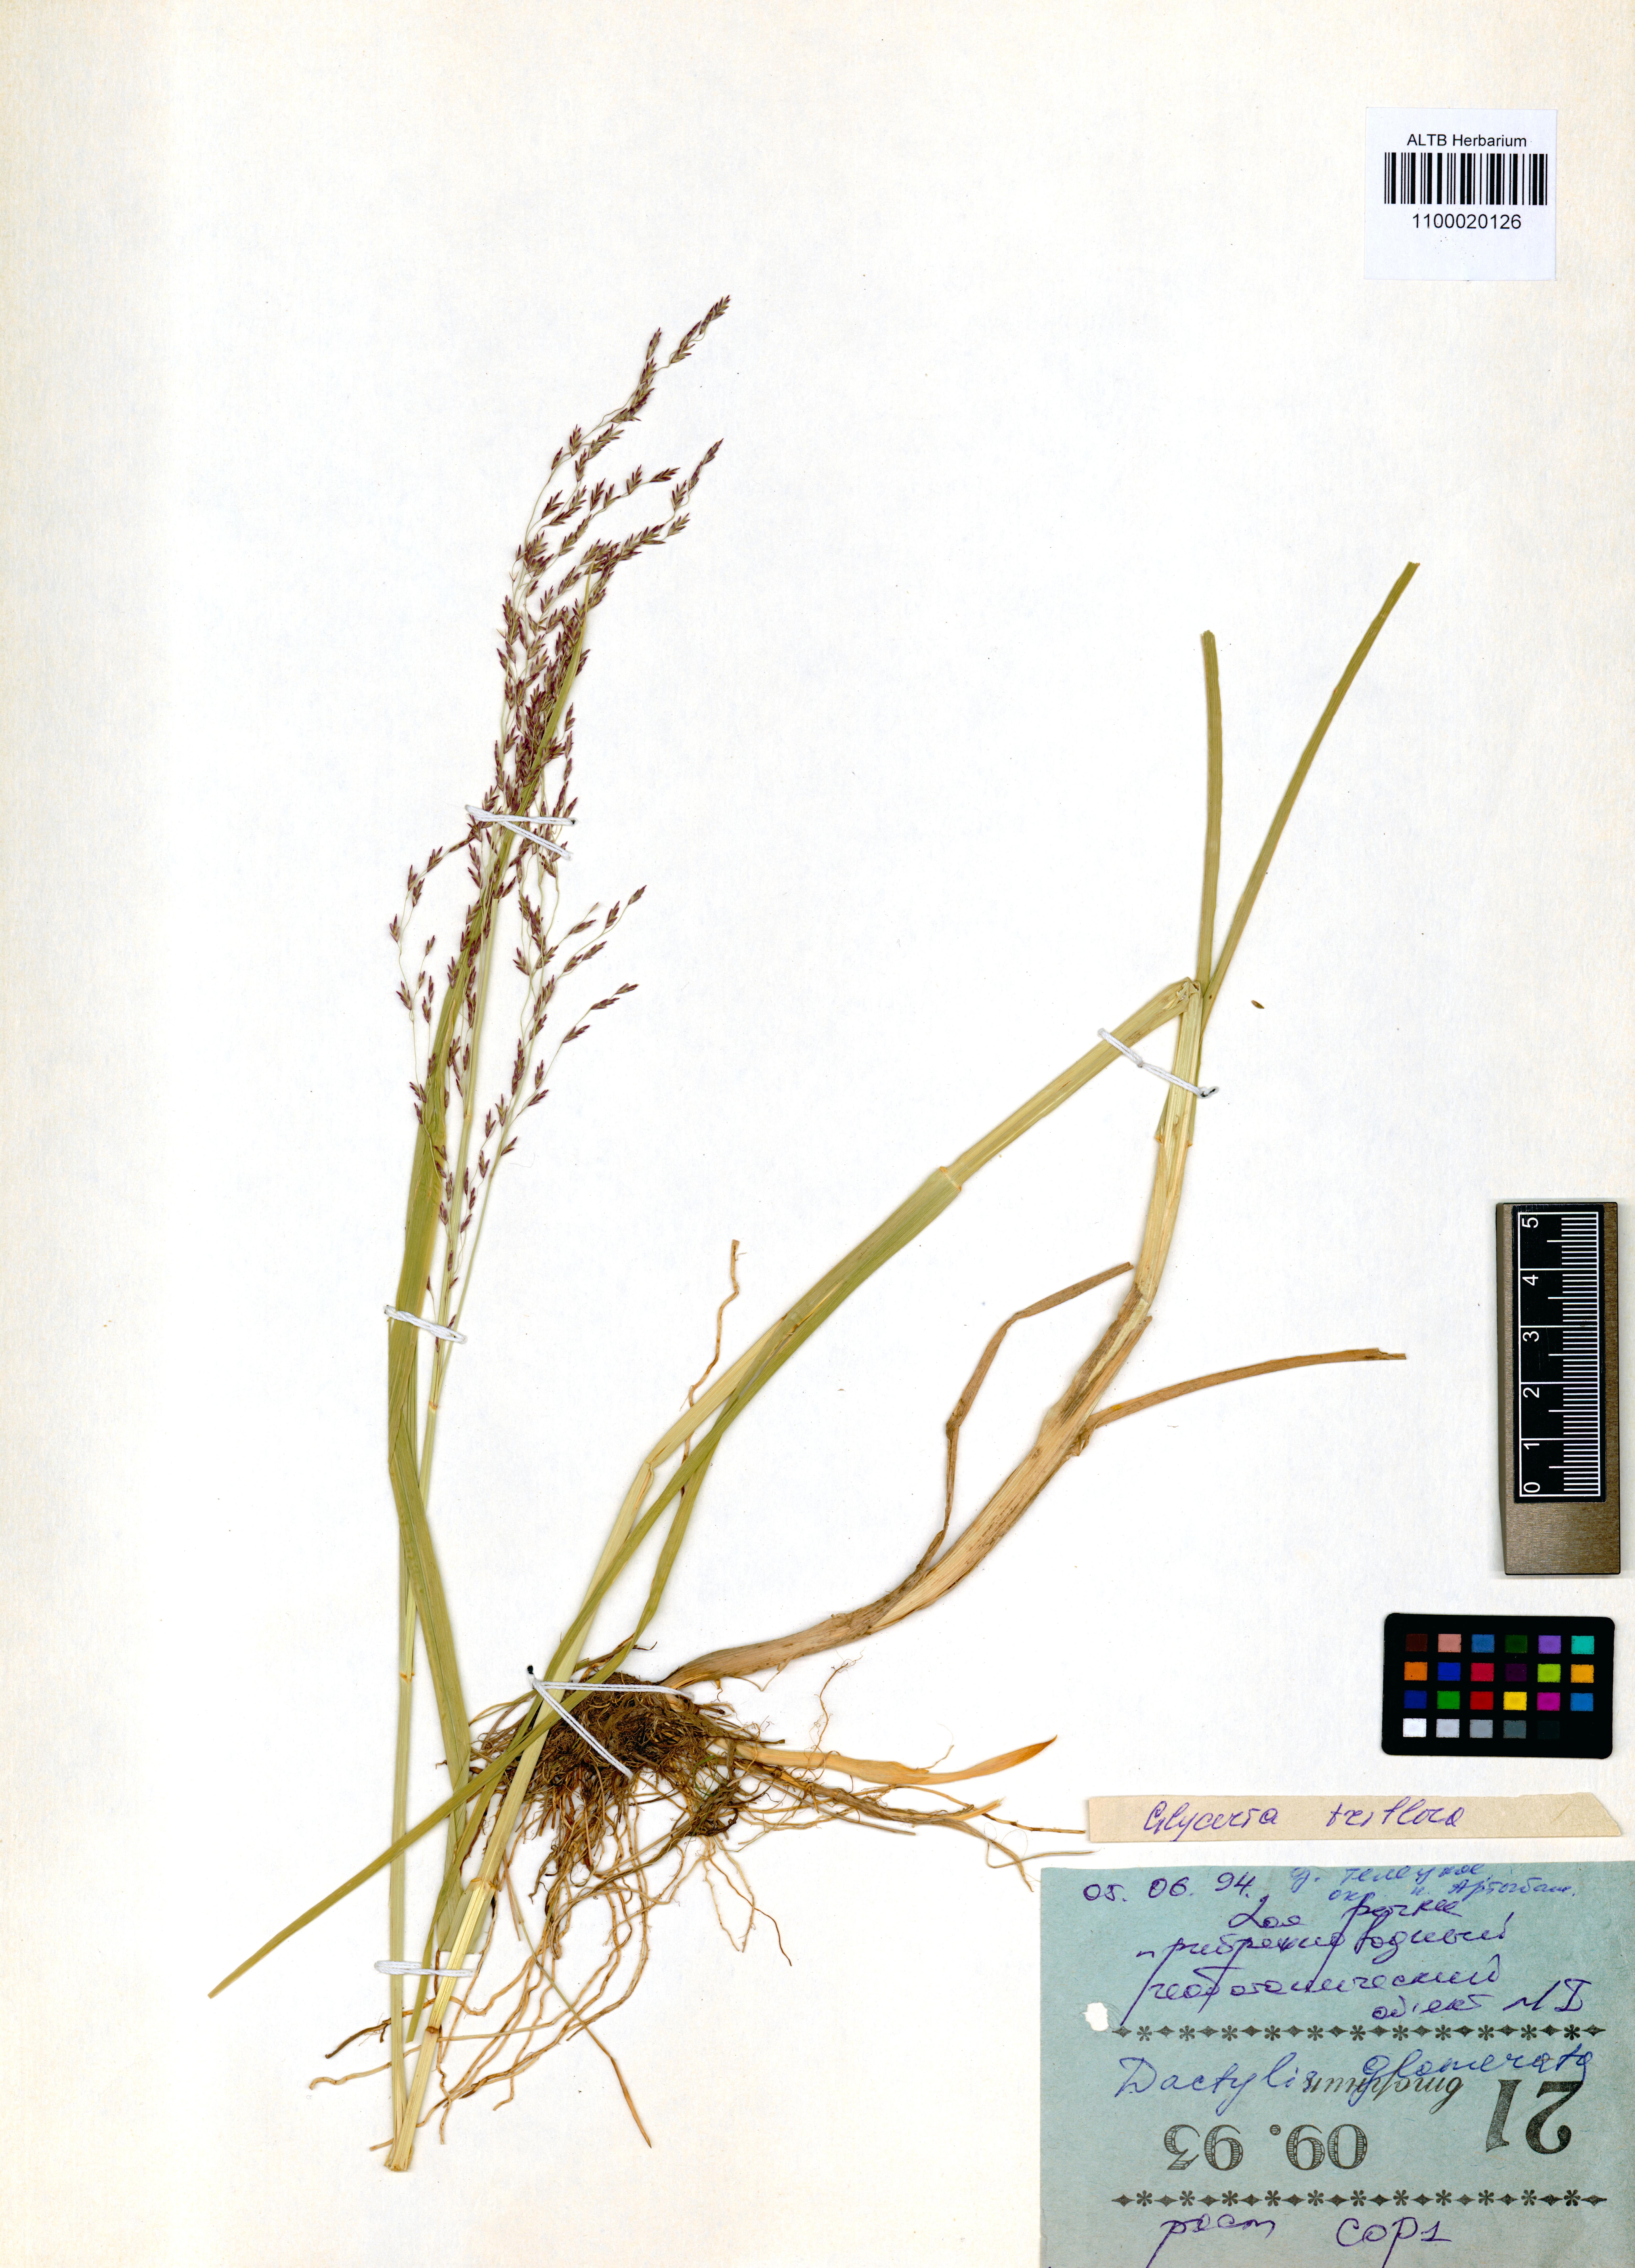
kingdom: Plantae
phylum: Tracheophyta
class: Liliopsida
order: Poales
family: Poaceae
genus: Glyceria
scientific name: Glyceria lithuanica
